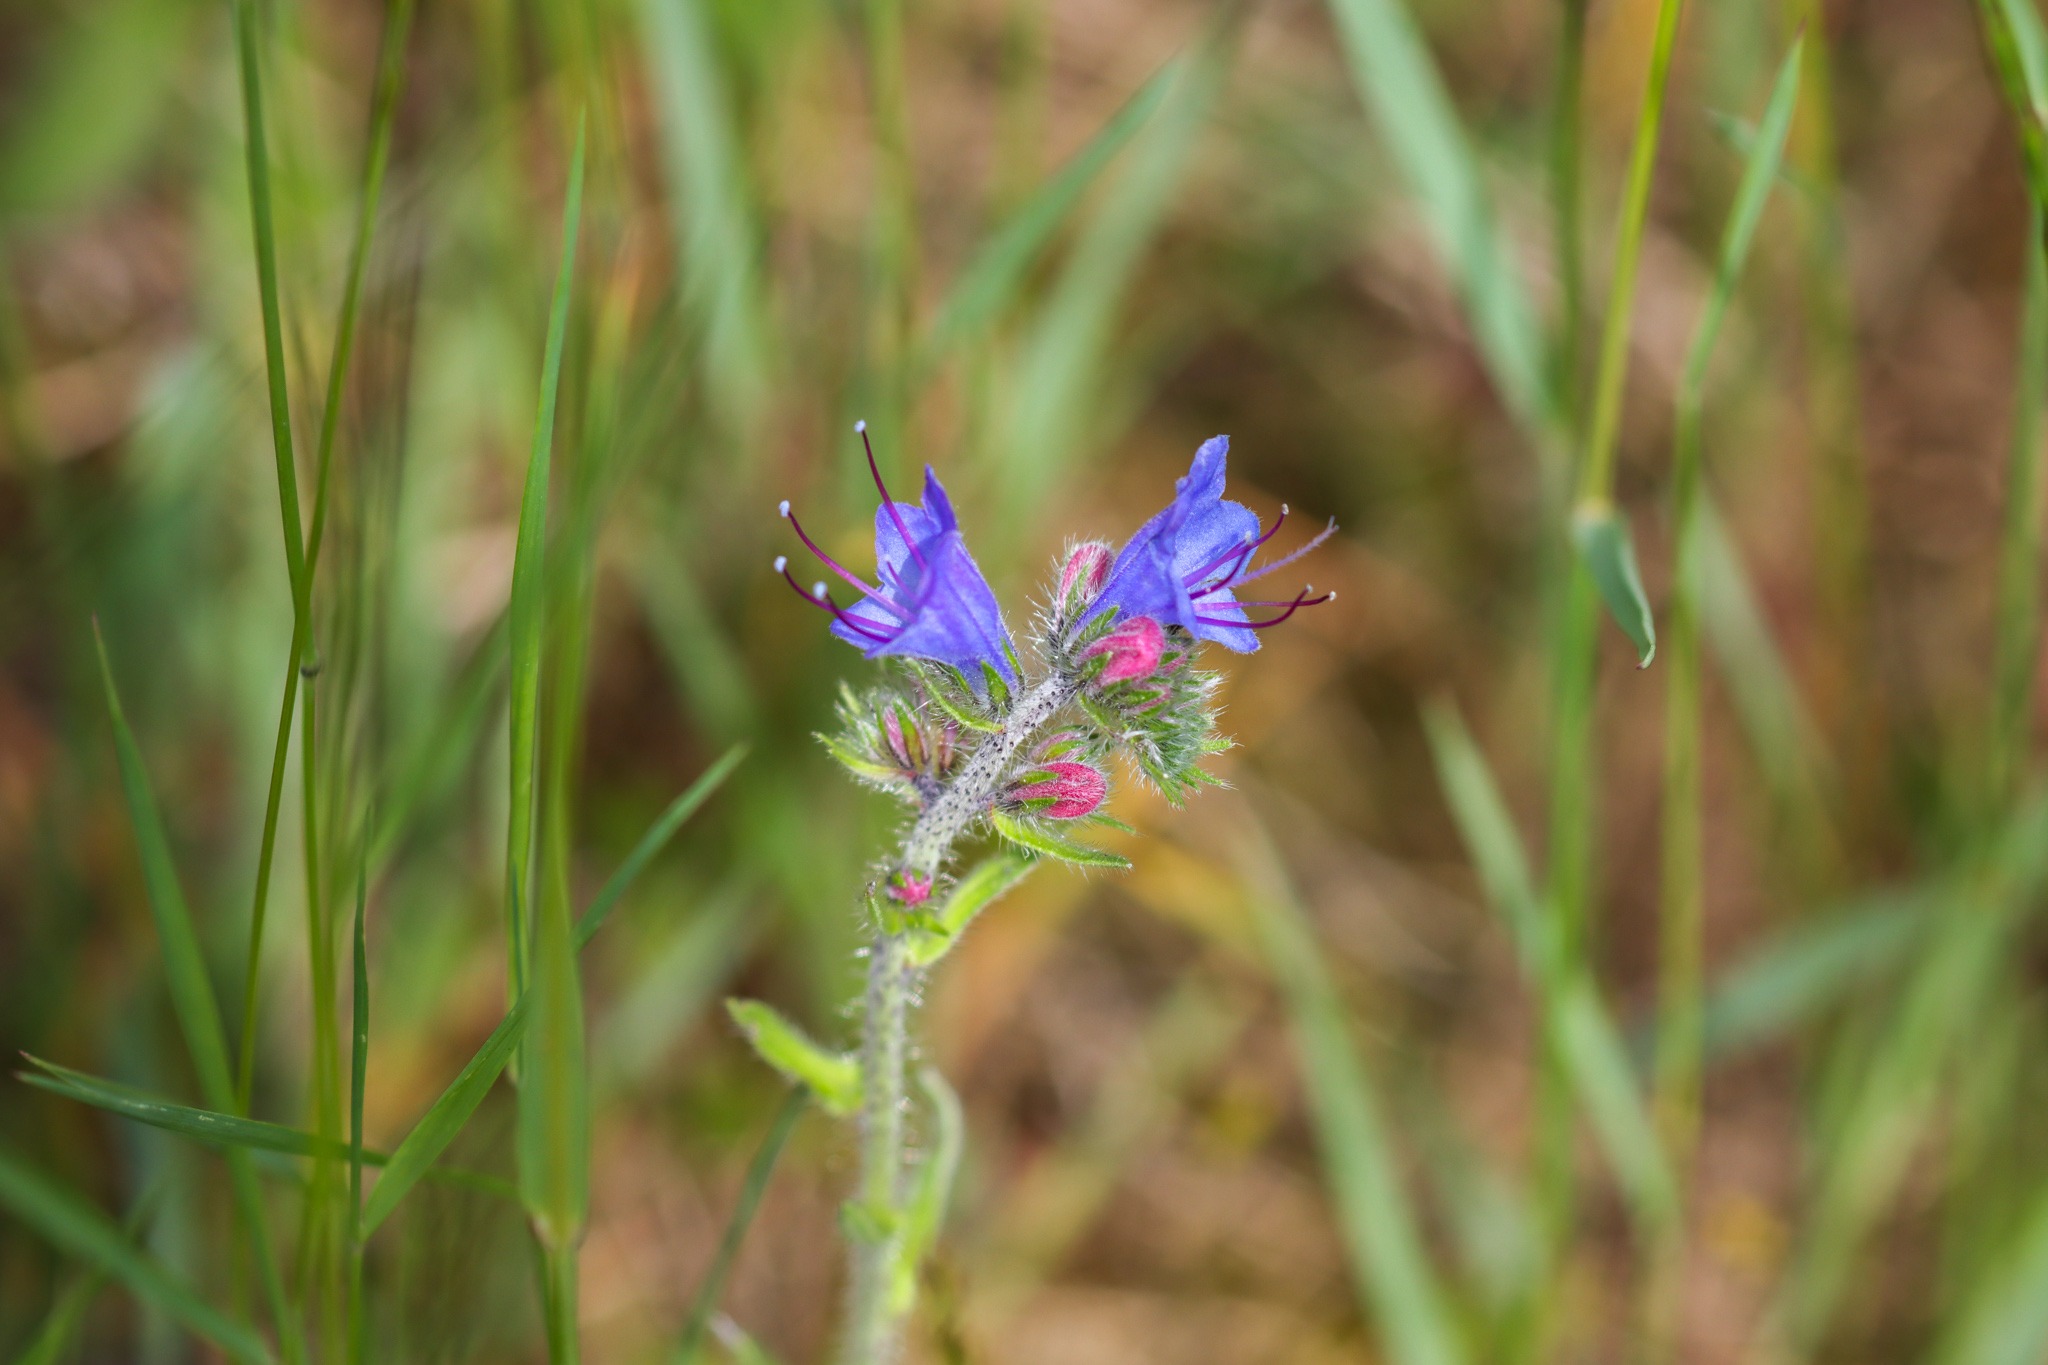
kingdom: Plantae
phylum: Tracheophyta
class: Magnoliopsida
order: Boraginales
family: Boraginaceae
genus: Echium
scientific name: Echium vulgare
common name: Slangehoved
